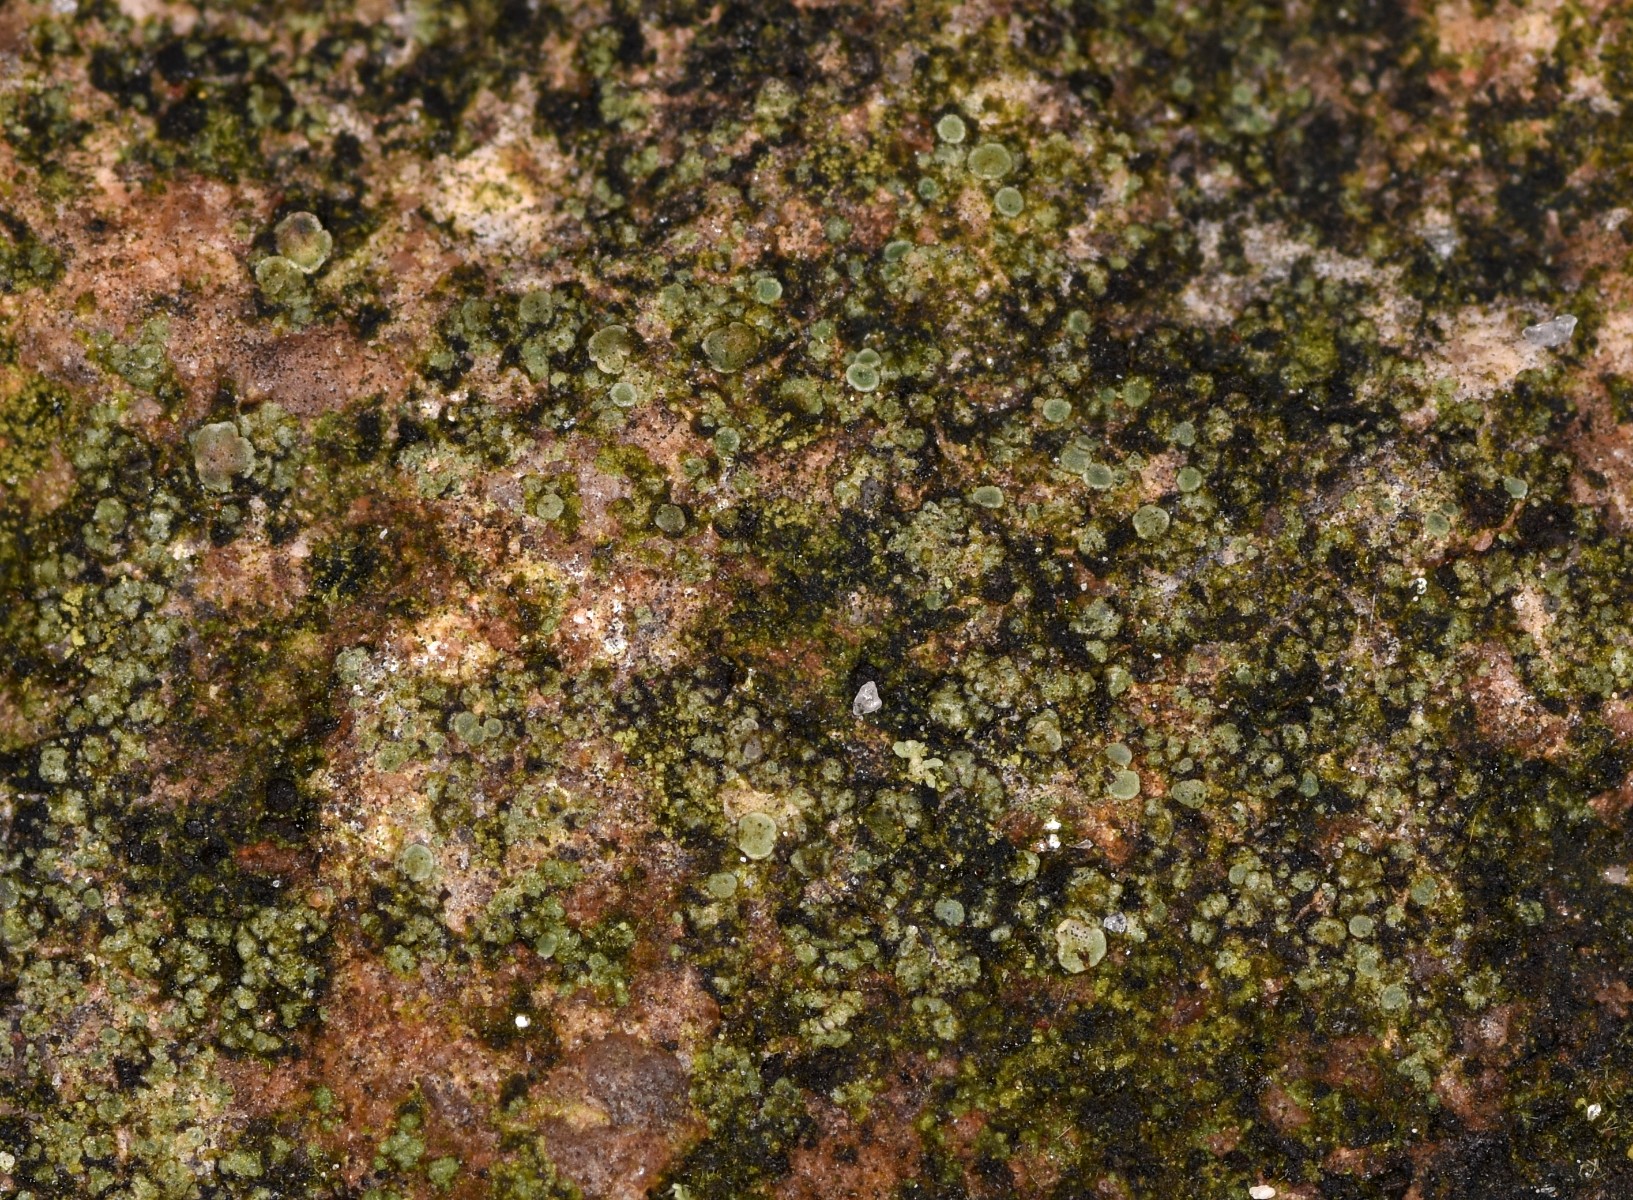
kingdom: Fungi
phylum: Ascomycota
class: Lecanoromycetes
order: Lecanorales
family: Lecanoraceae
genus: Lecanora
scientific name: Lecanora polytropa
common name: bleggrøn kantskivelav
